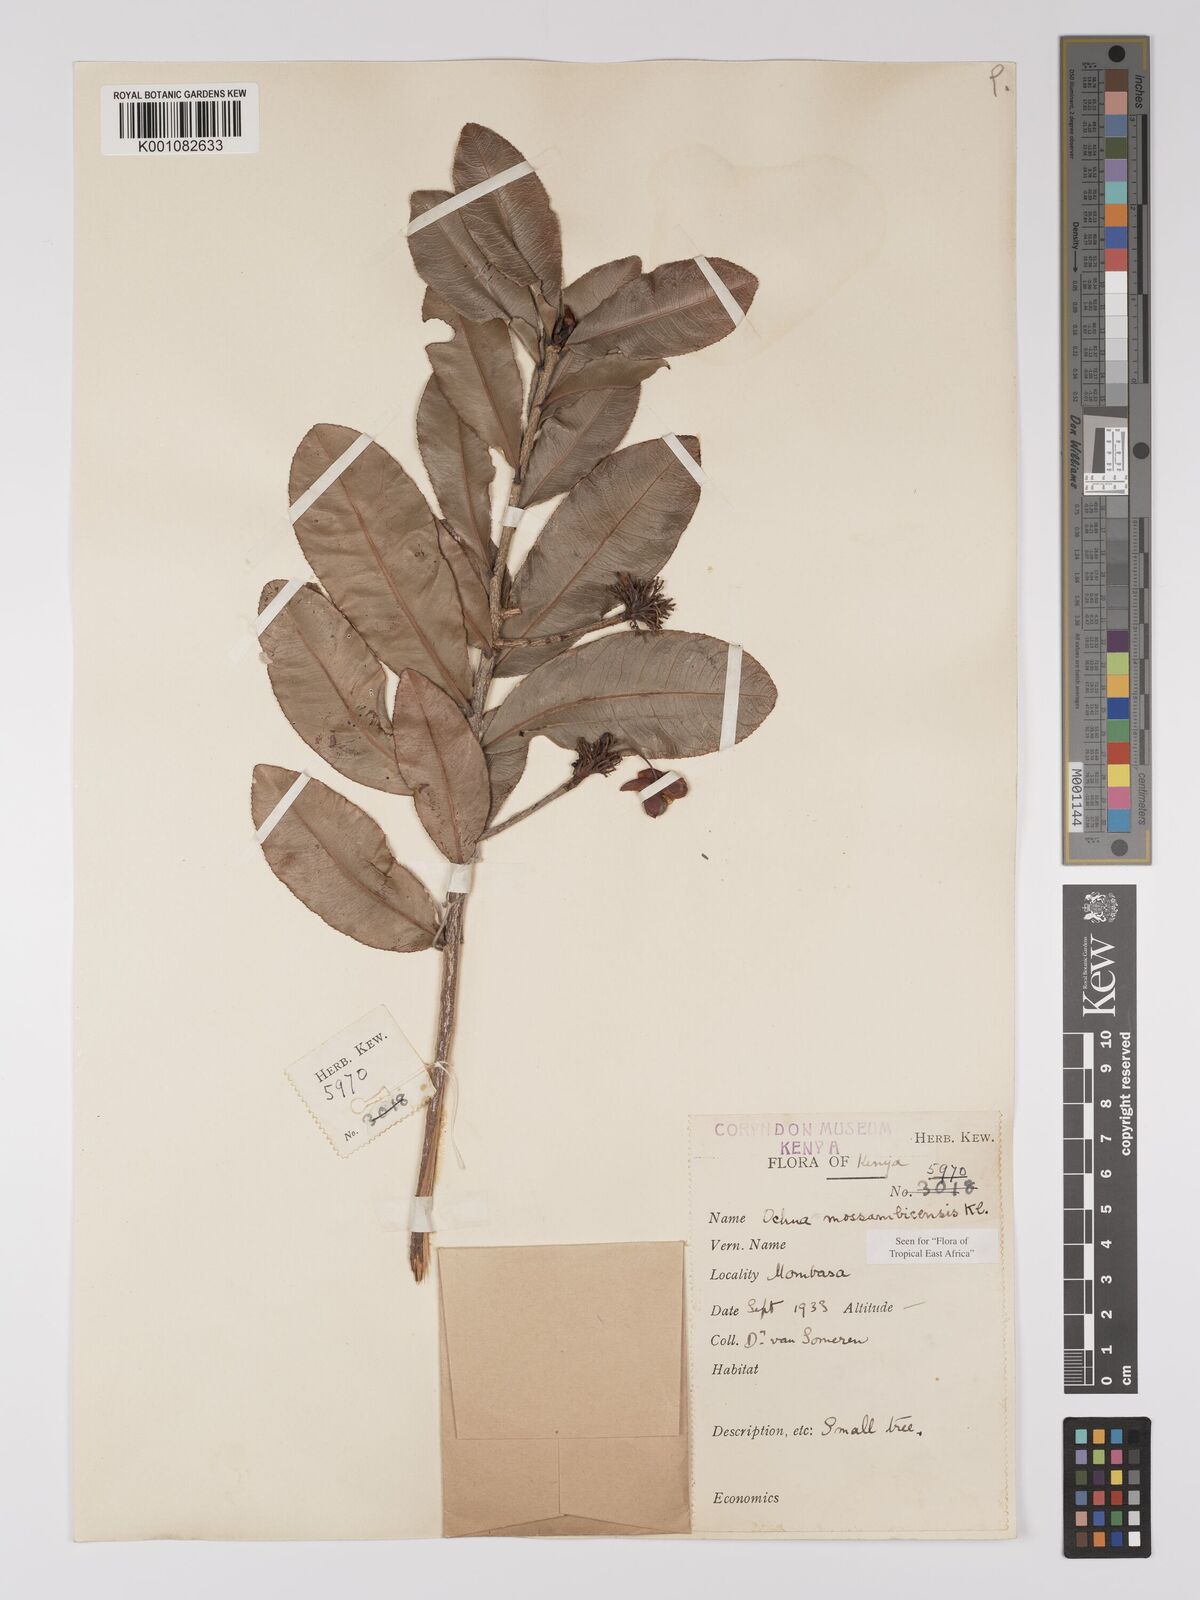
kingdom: Plantae
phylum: Tracheophyta
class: Magnoliopsida
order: Malpighiales
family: Ochnaceae
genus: Ochna
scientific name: Ochna atropurpurea
